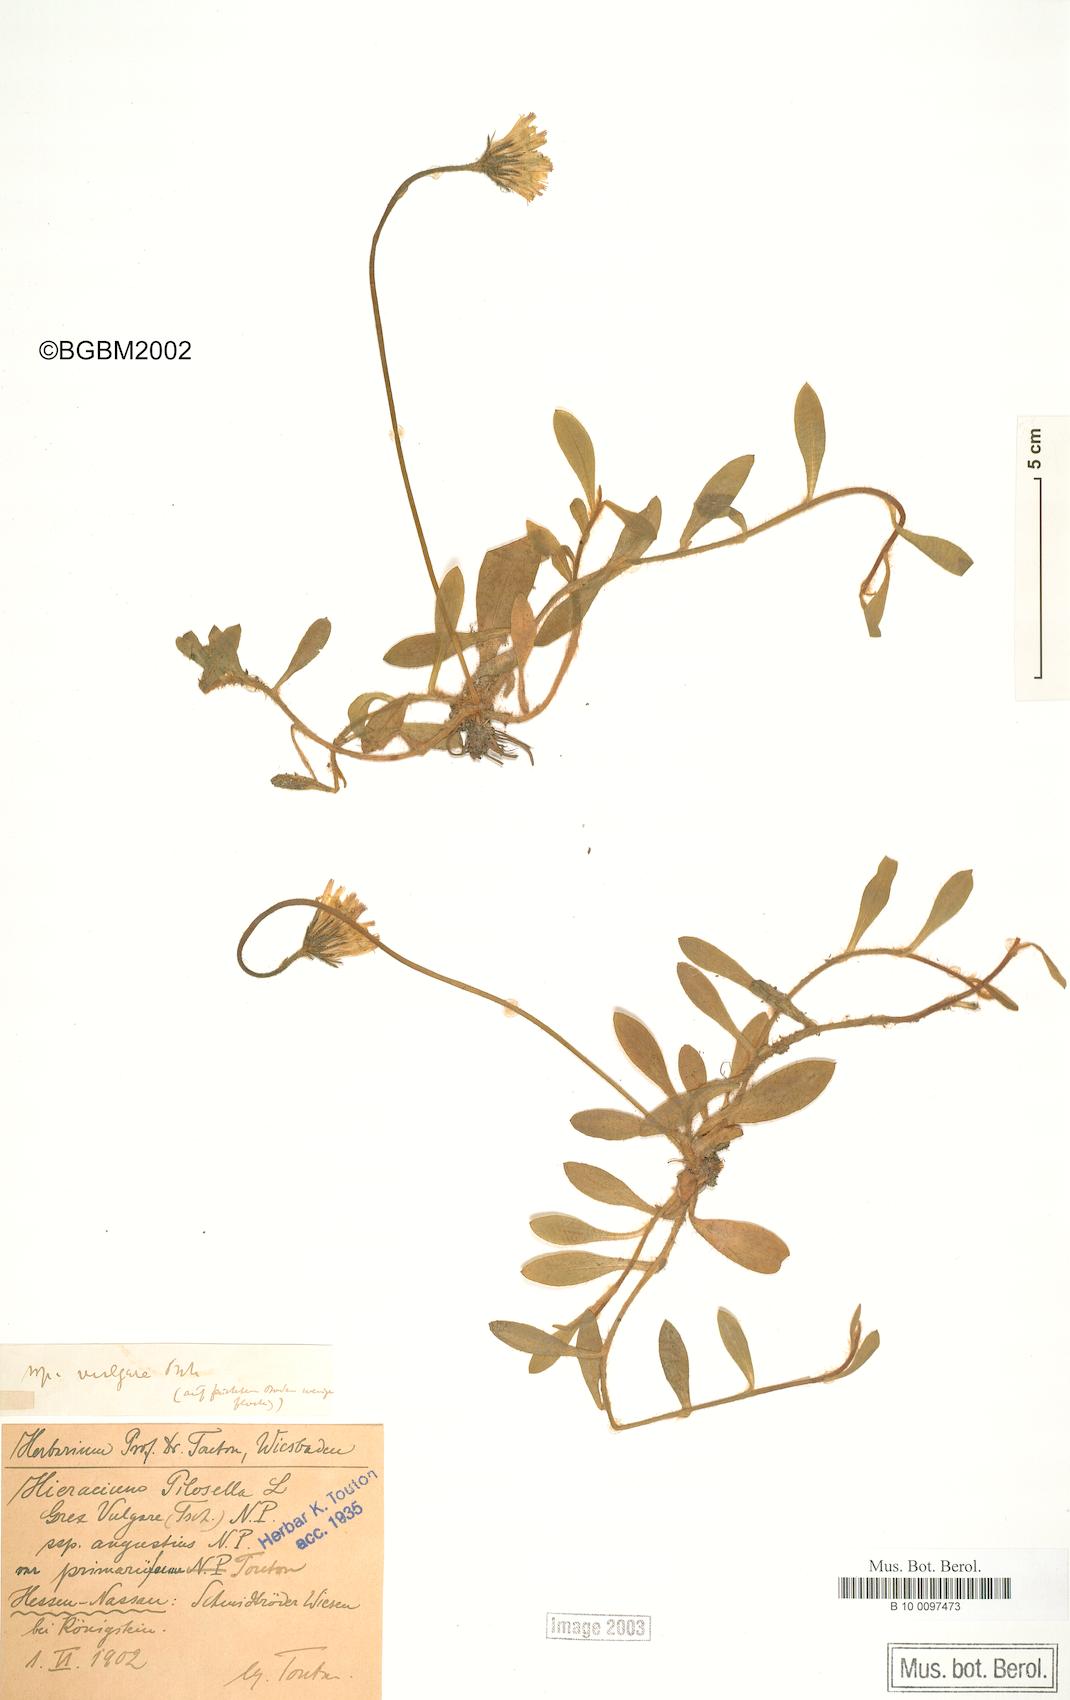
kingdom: Plantae
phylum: Tracheophyta
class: Magnoliopsida
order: Asterales
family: Asteraceae
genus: Pilosella
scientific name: Pilosella officinarum
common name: Mouse-ear hawkweed
